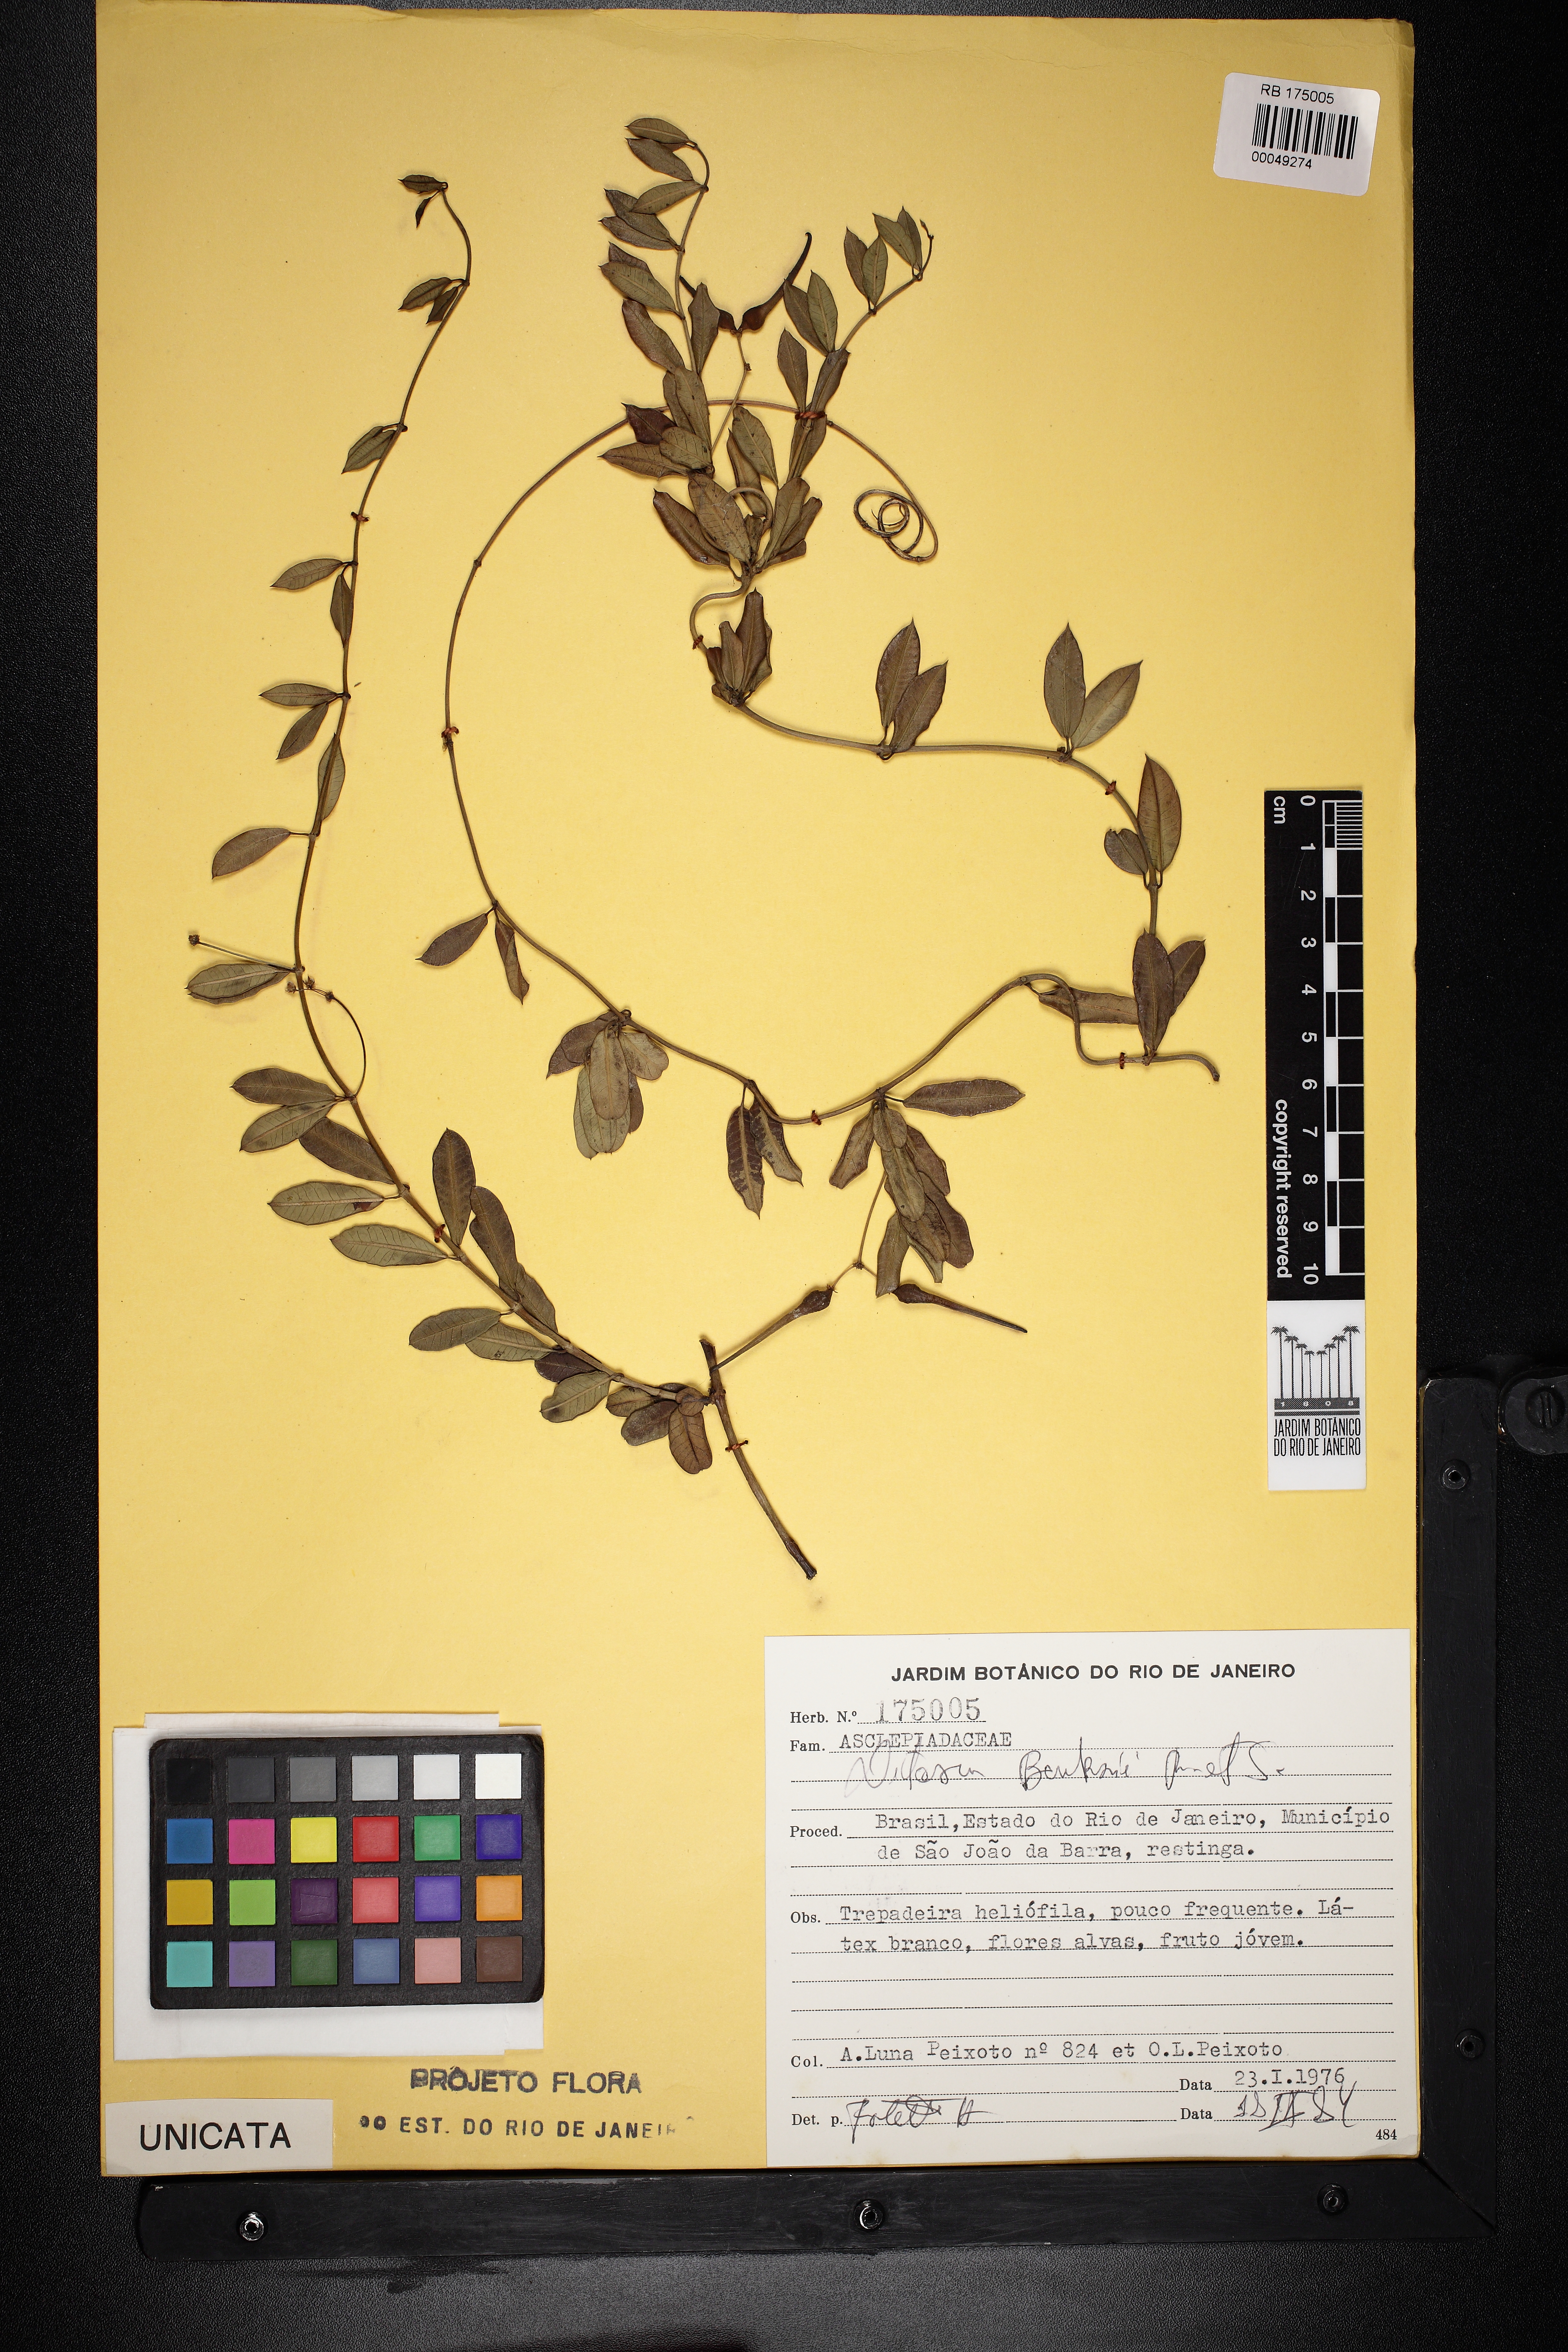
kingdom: Plantae
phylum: Tracheophyta
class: Magnoliopsida
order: Gentianales
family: Apocynaceae
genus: Ditassa
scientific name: Ditassa banksii
